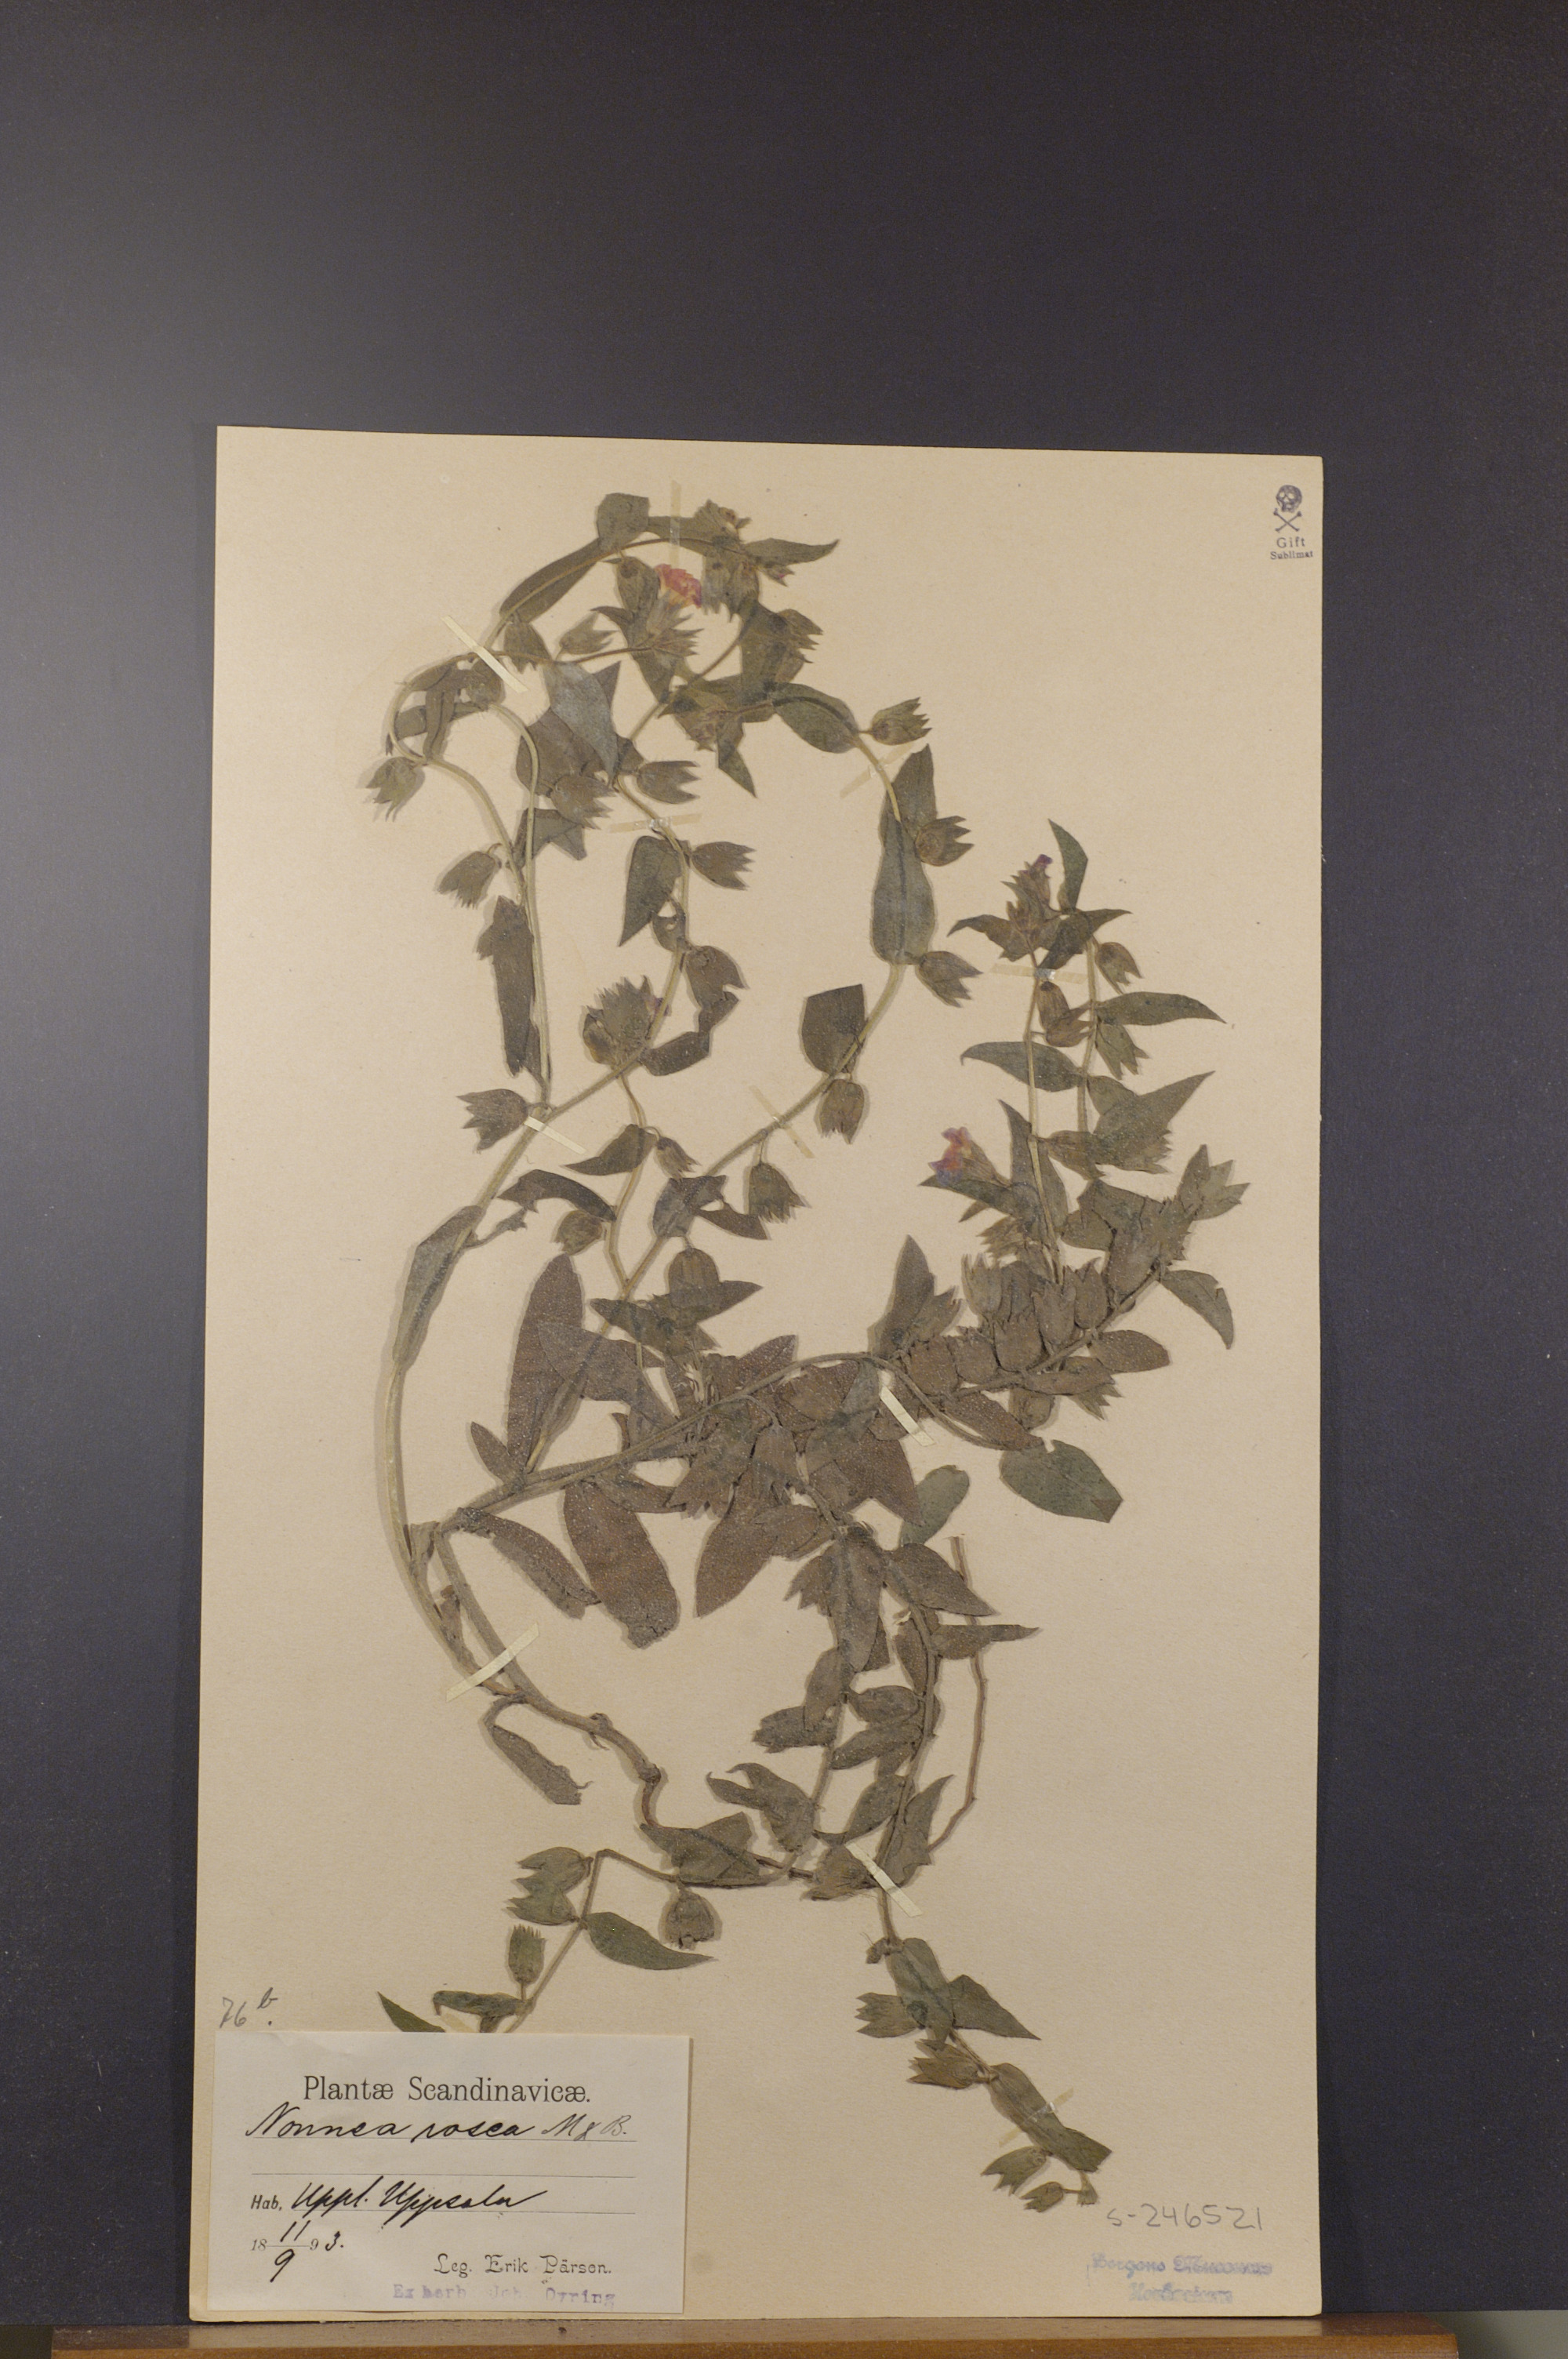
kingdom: Plantae
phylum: Tracheophyta
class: Magnoliopsida
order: Boraginales
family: Boraginaceae
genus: Nonea
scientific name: Nonea versicolor
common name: Varied monkswort
